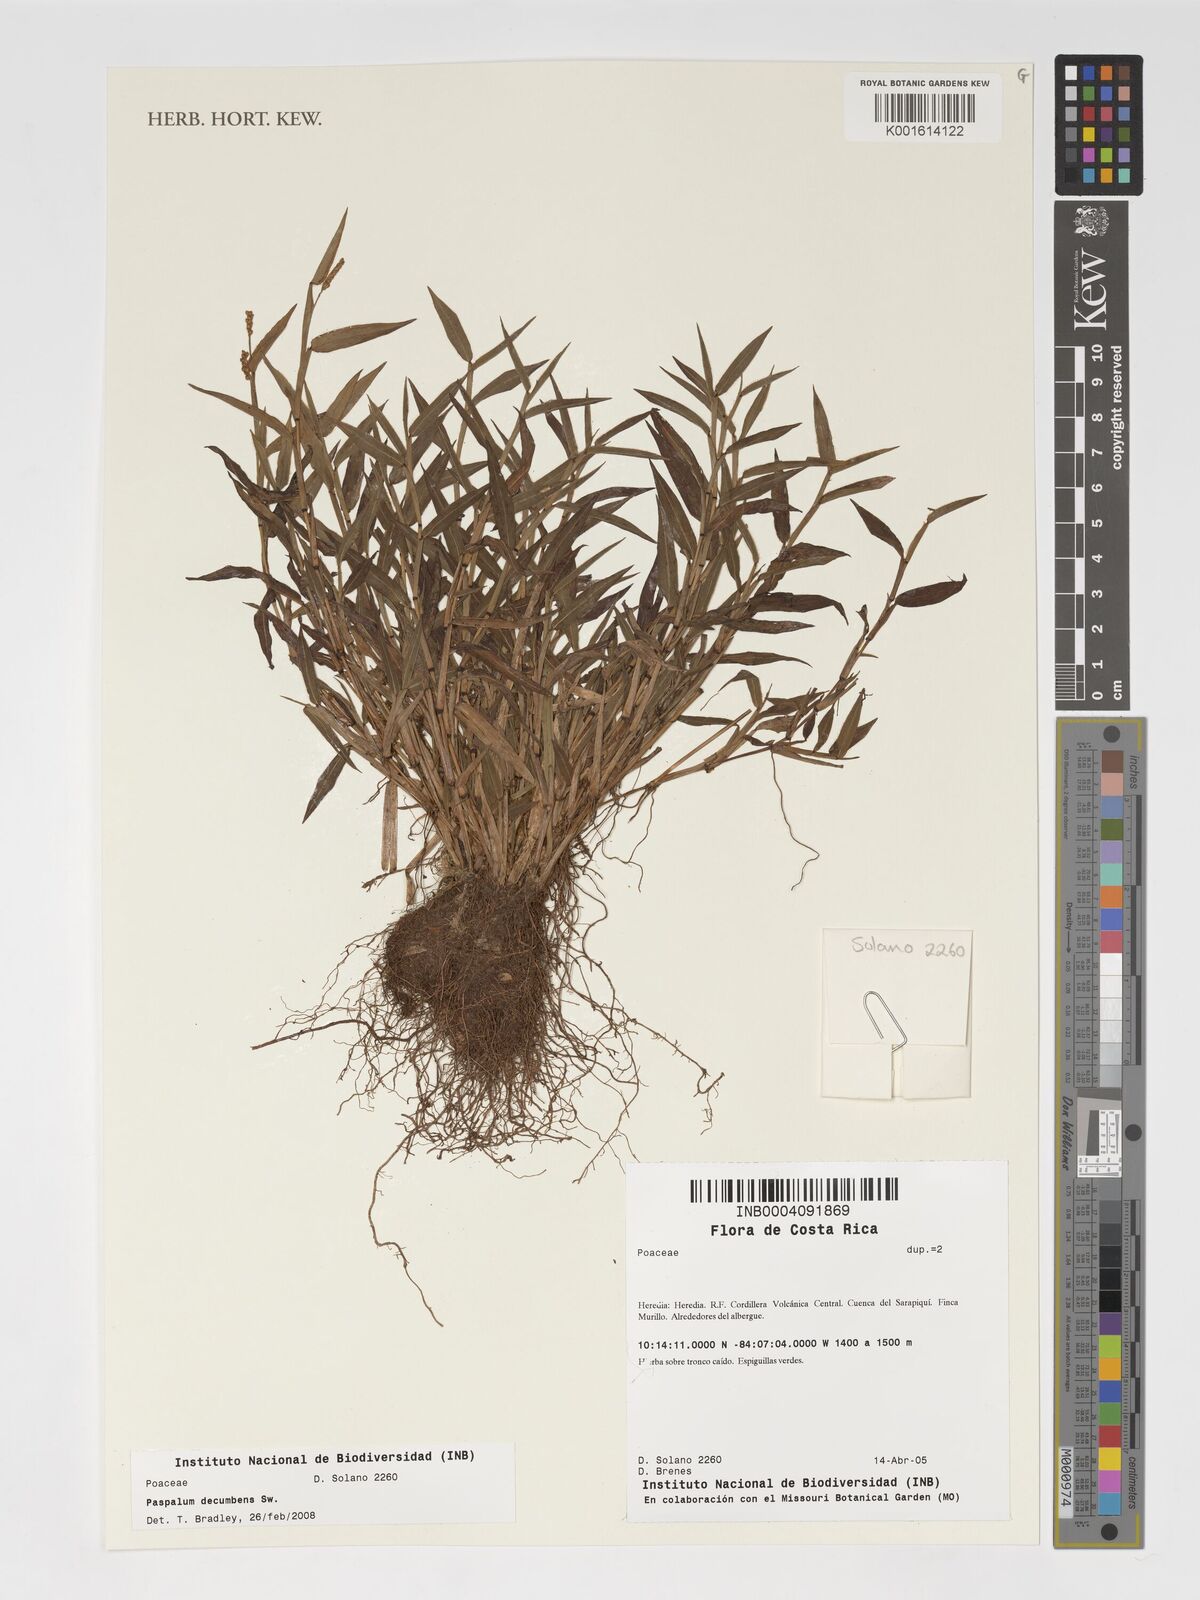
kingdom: Plantae
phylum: Tracheophyta
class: Liliopsida
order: Poales
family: Poaceae
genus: Paspalum
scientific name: Paspalum decumbens
